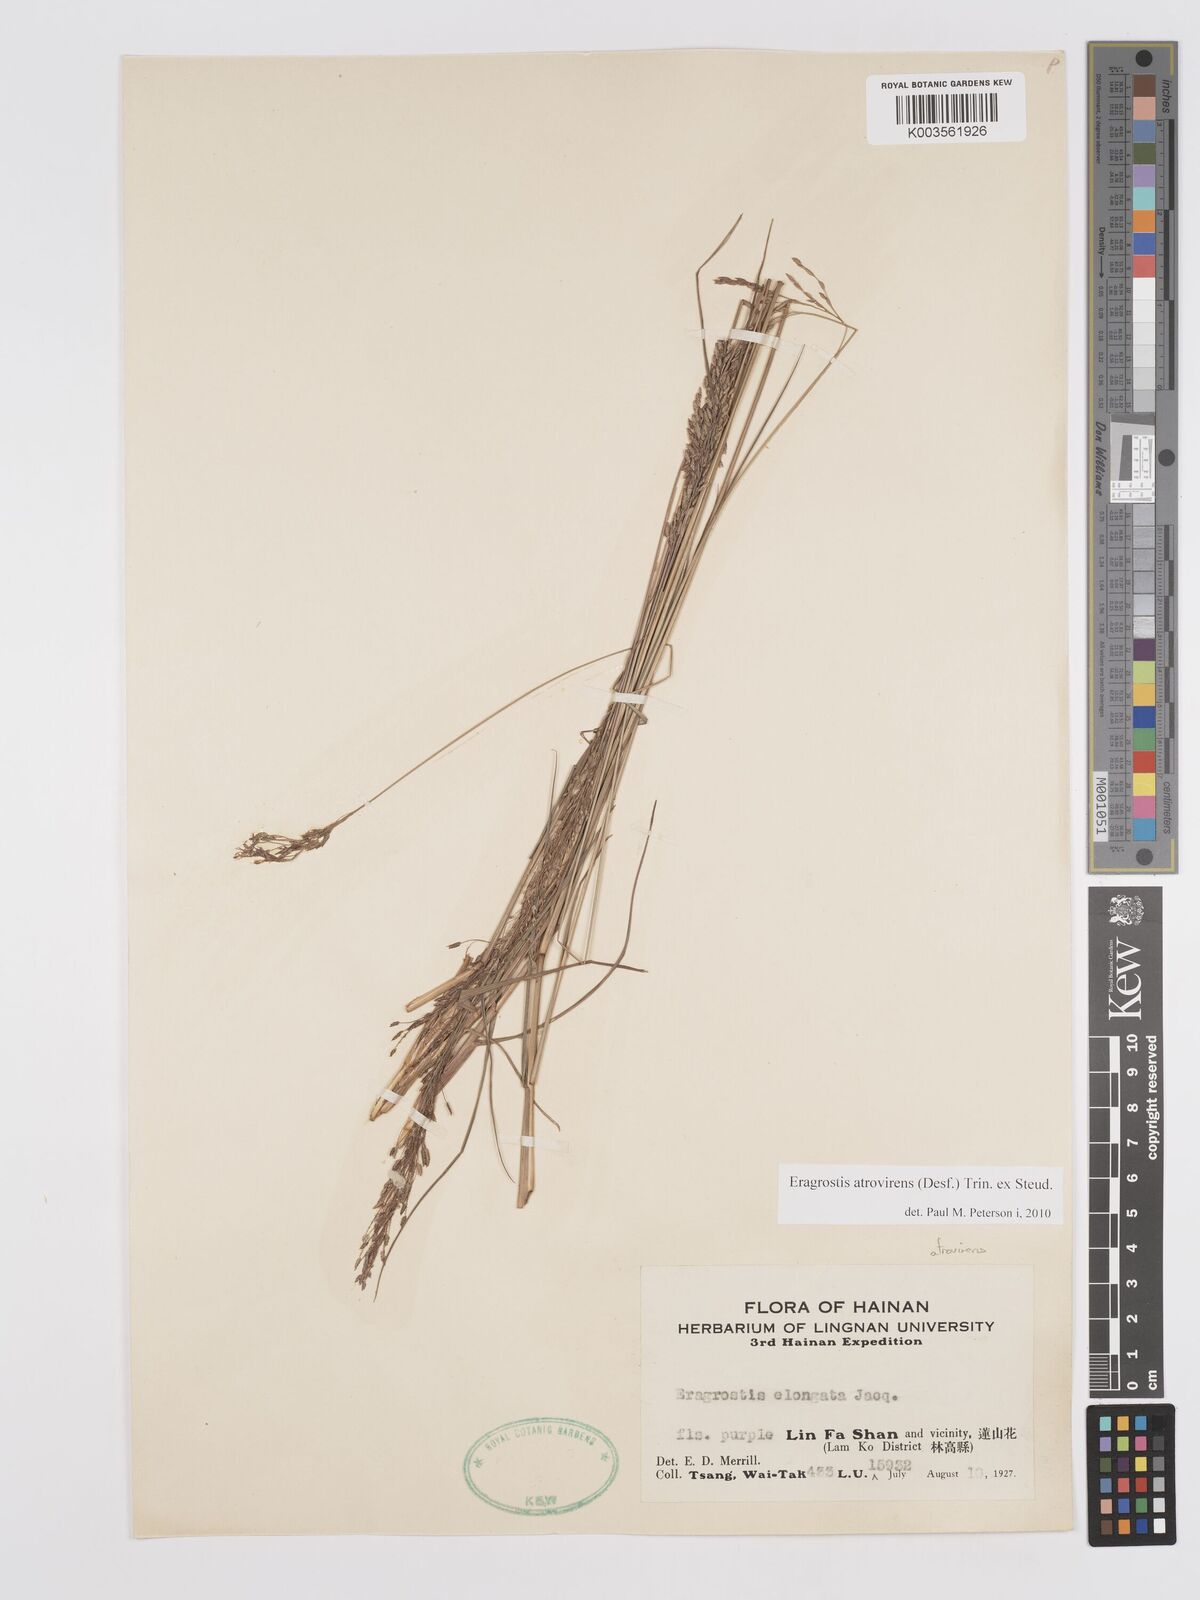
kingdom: Plantae
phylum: Tracheophyta
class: Liliopsida
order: Poales
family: Poaceae
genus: Eragrostis
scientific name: Eragrostis atrovirens
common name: Thalia lovegrass
